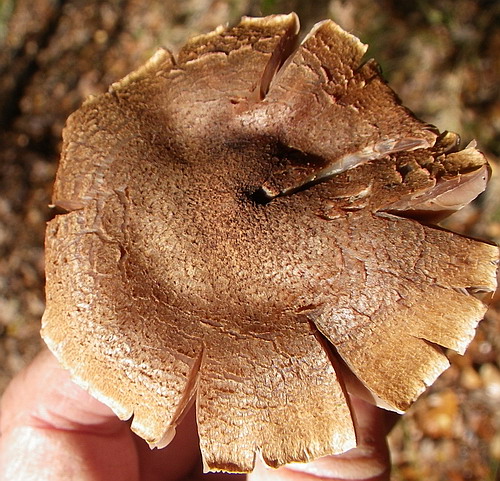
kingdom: Fungi
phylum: Basidiomycota
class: Agaricomycetes
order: Agaricales
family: Cortinariaceae
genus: Cortinarius
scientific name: Cortinarius pholideus
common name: brunskællet slørhat
